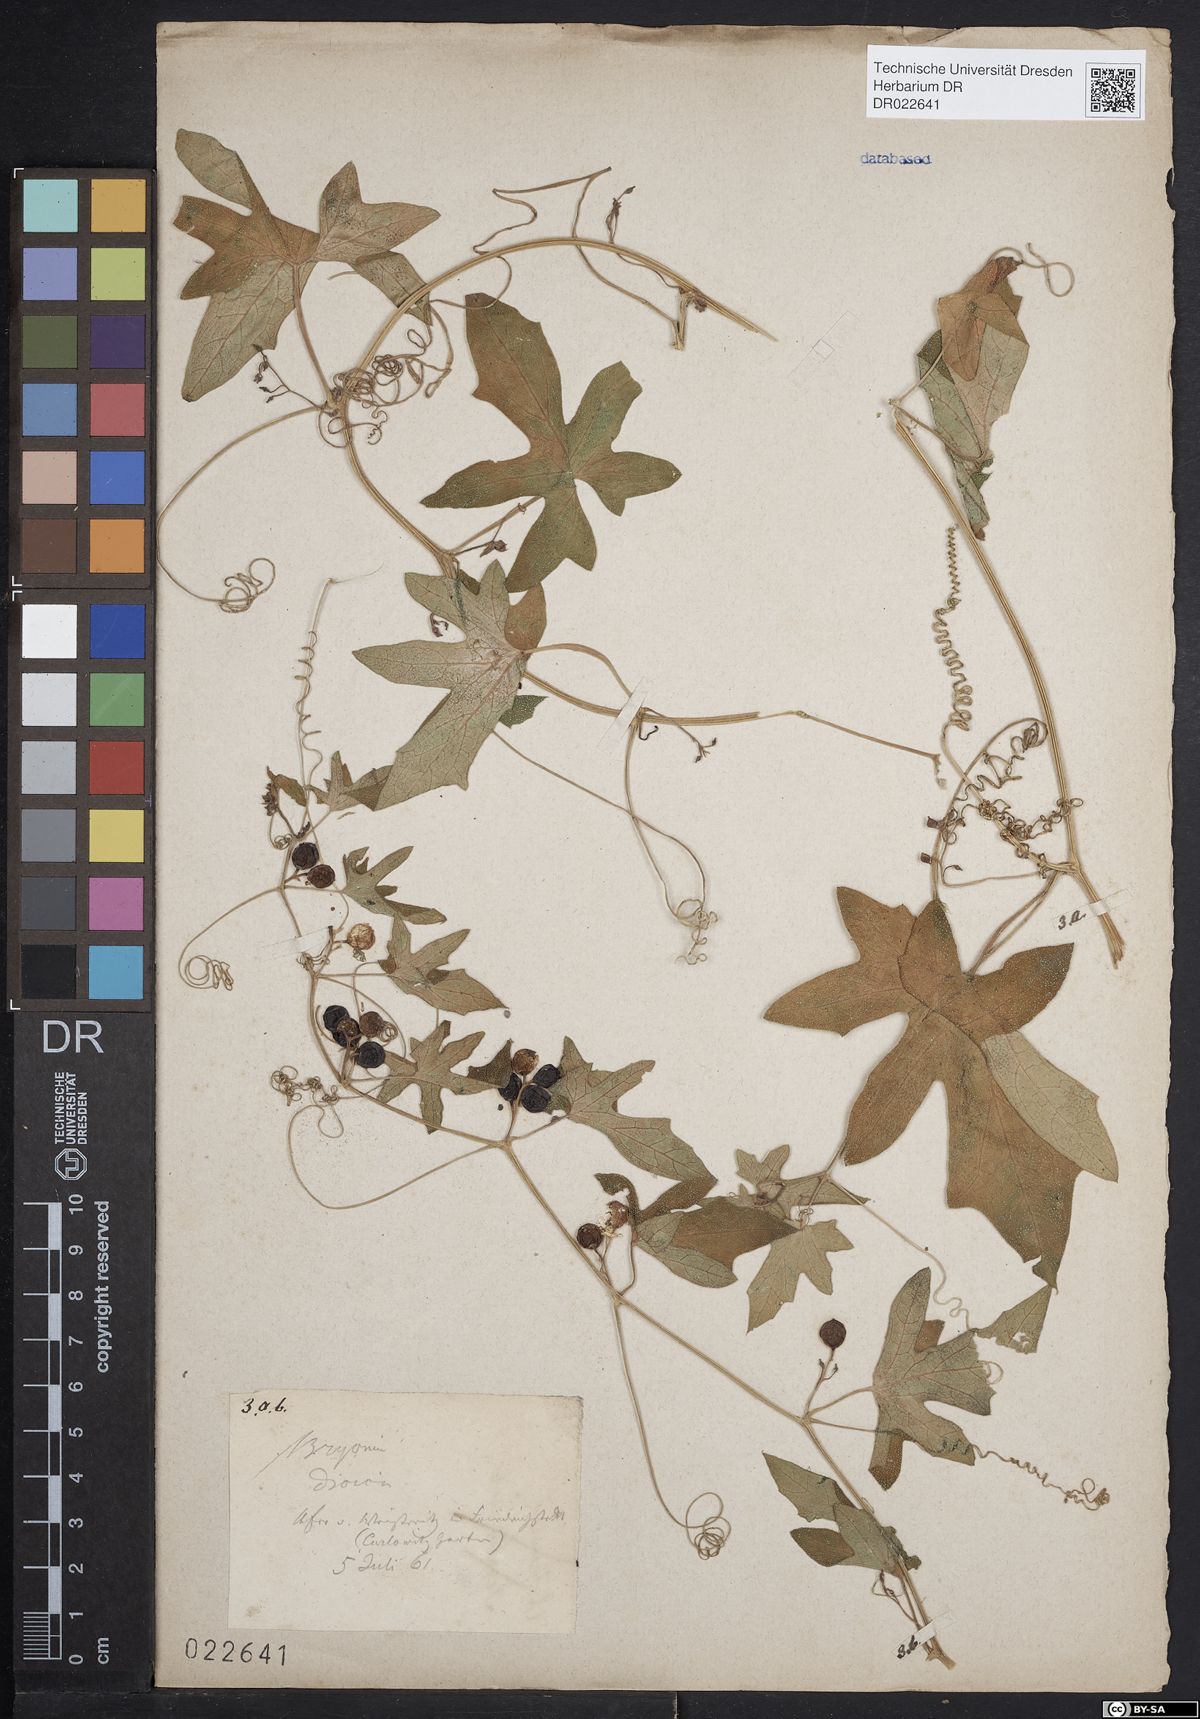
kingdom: Plantae
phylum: Tracheophyta
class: Magnoliopsida
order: Cucurbitales
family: Cucurbitaceae
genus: Bryonia
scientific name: Bryonia dioica
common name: White bryony
